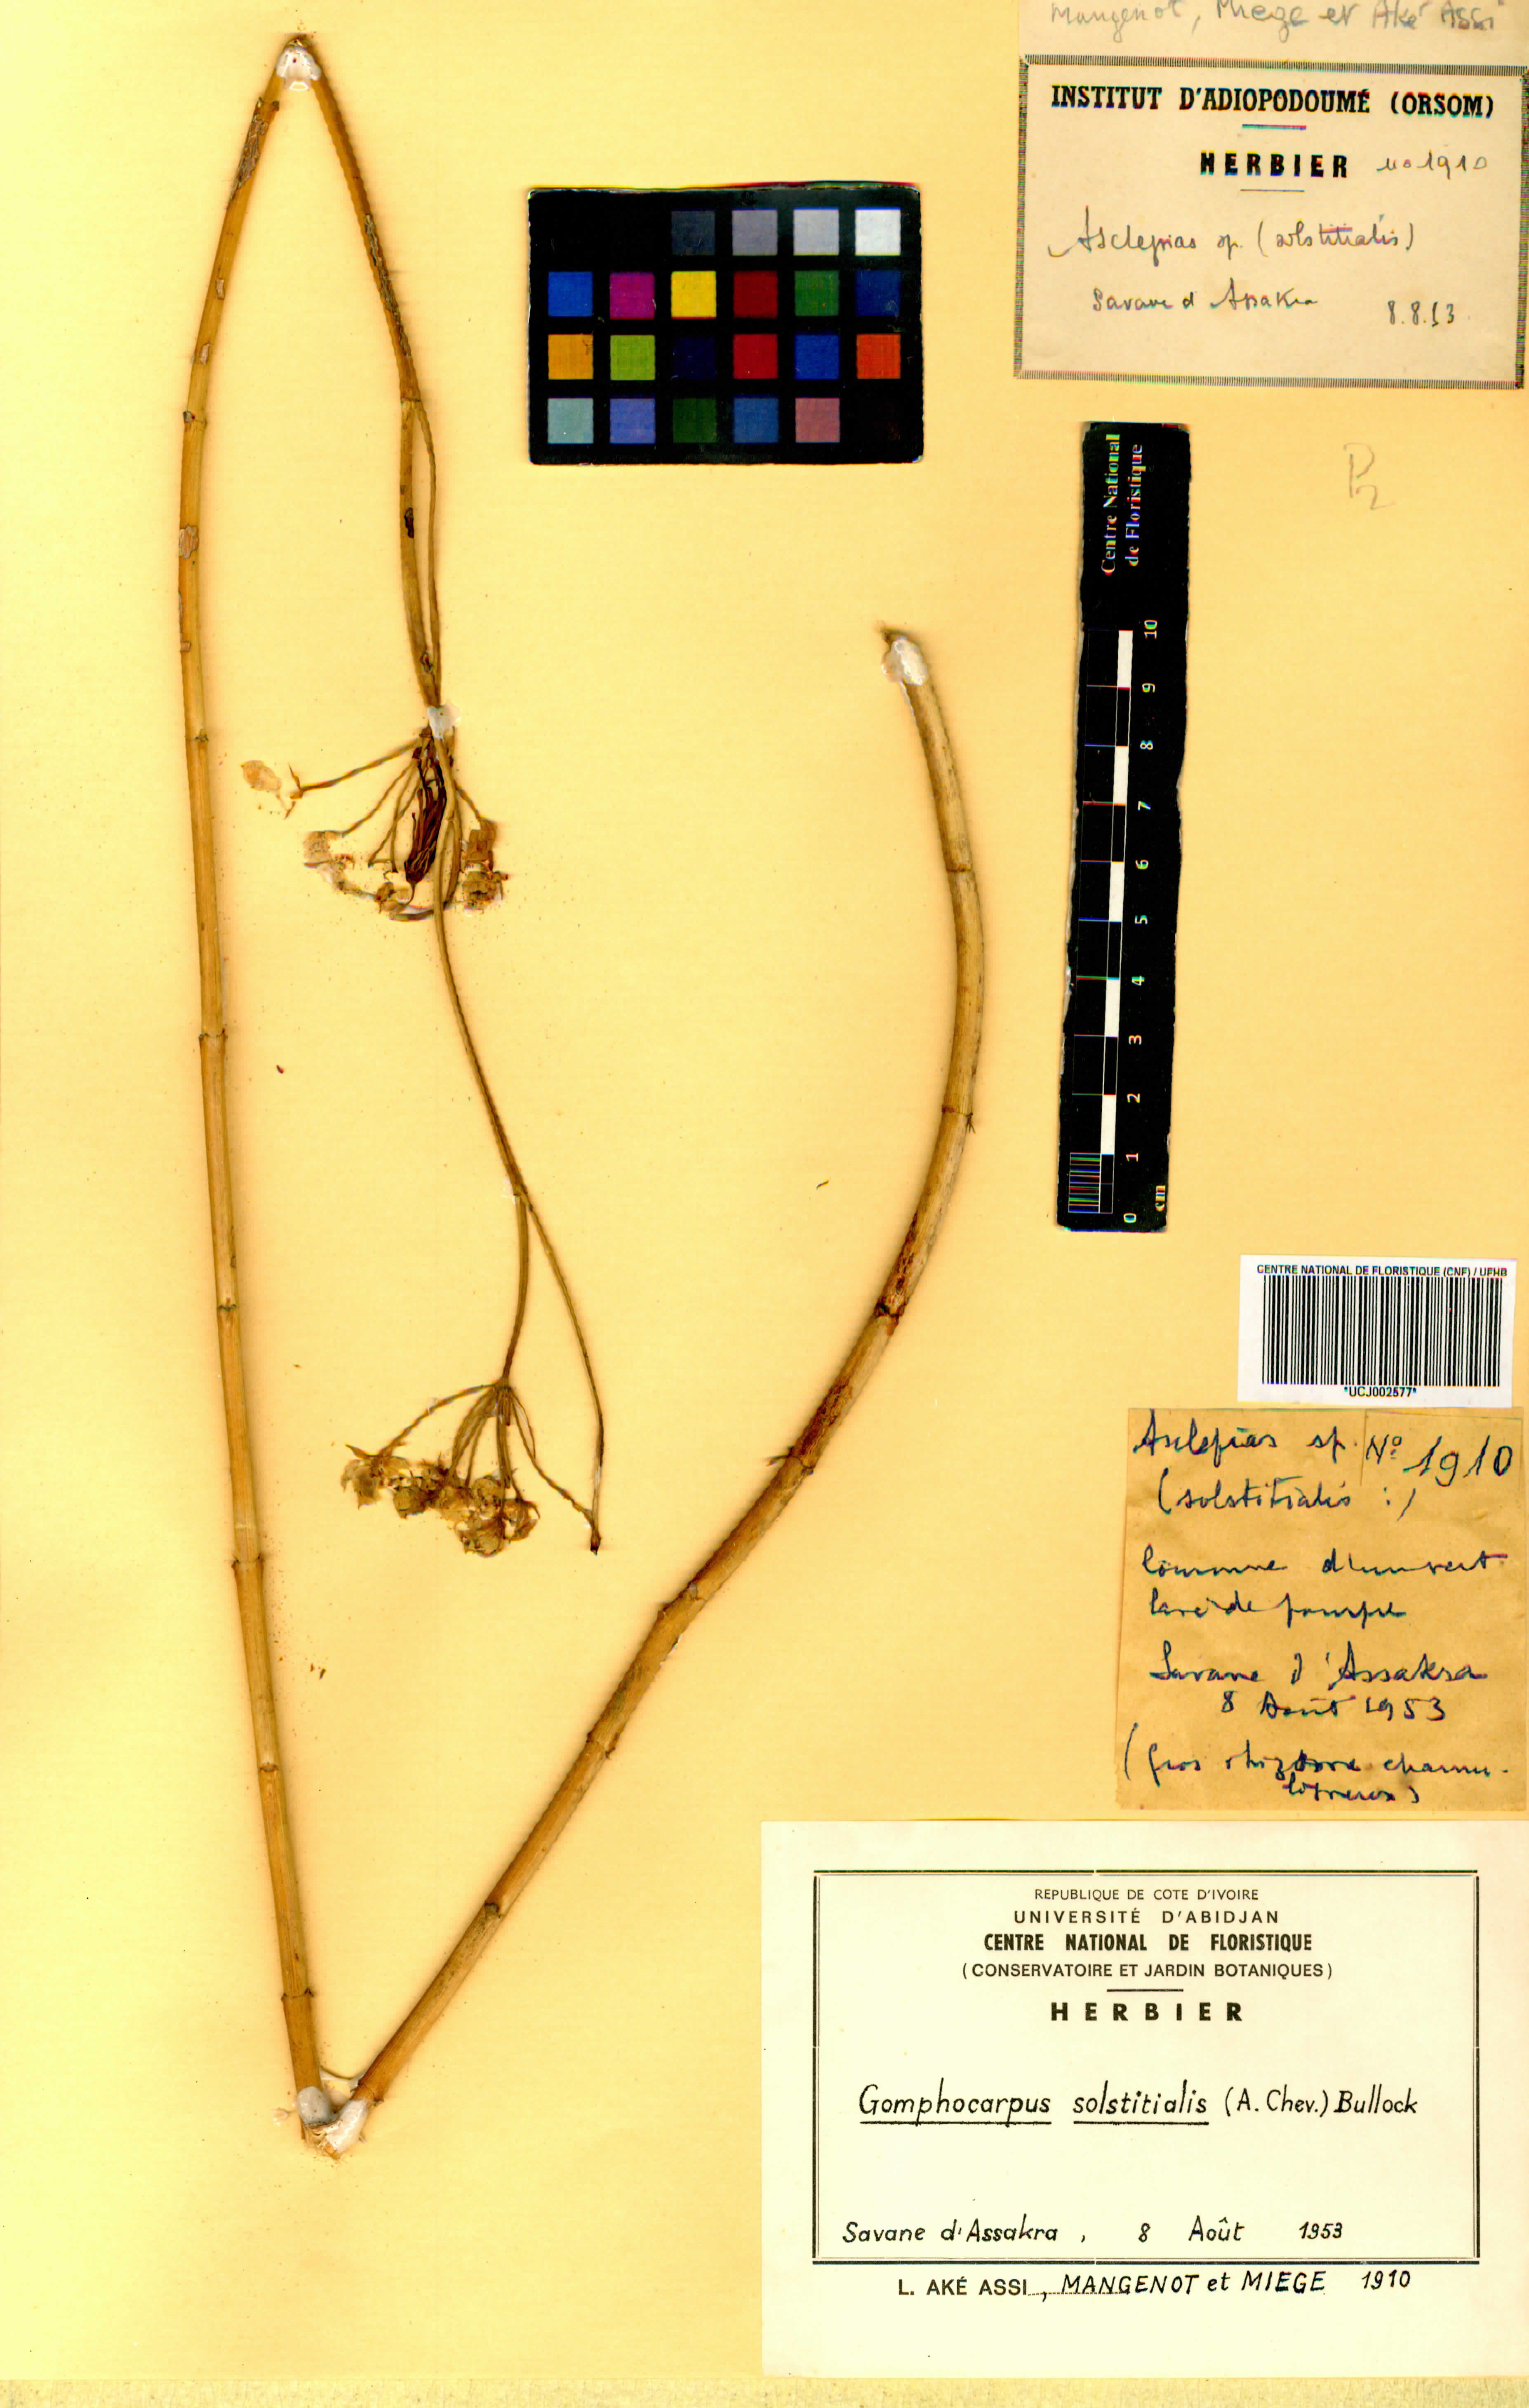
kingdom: Plantae
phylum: Tracheophyta
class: Magnoliopsida
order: Gentianales
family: Apocynaceae
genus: Asclepias
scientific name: Asclepias solstitialis
